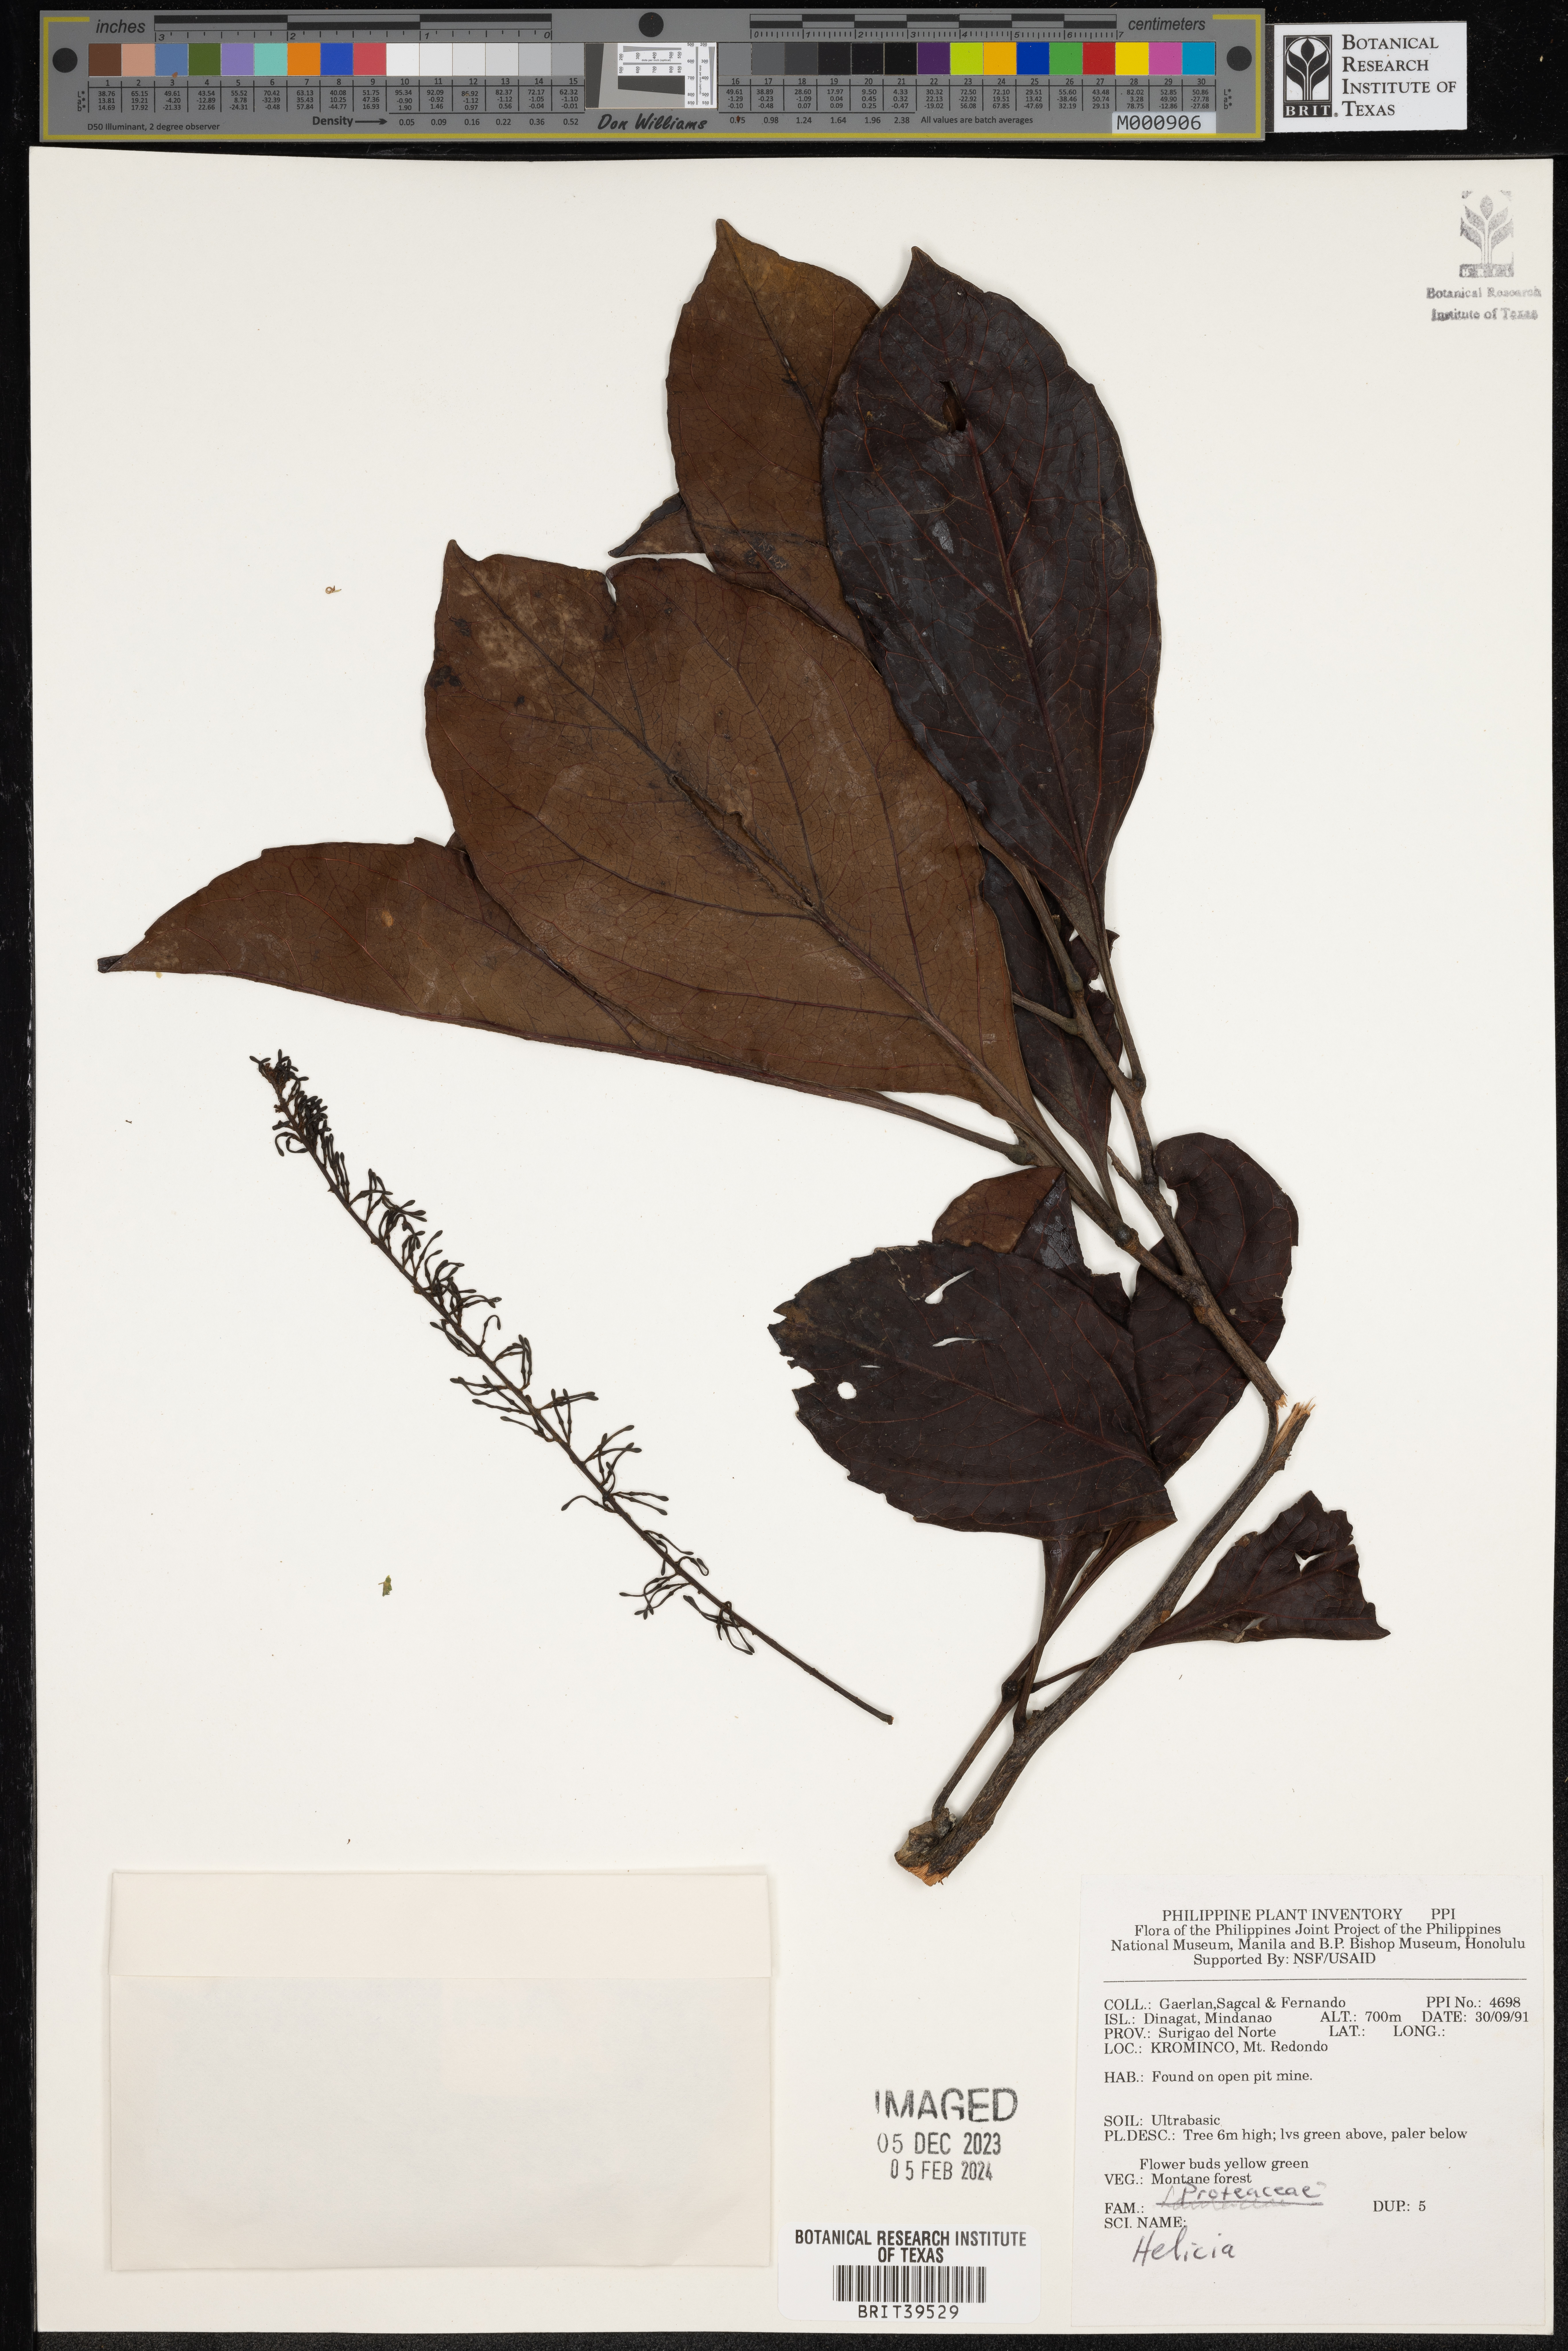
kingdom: Plantae
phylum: Tracheophyta
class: Magnoliopsida
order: Proteales
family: Proteaceae
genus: Helicia
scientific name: Helicia
